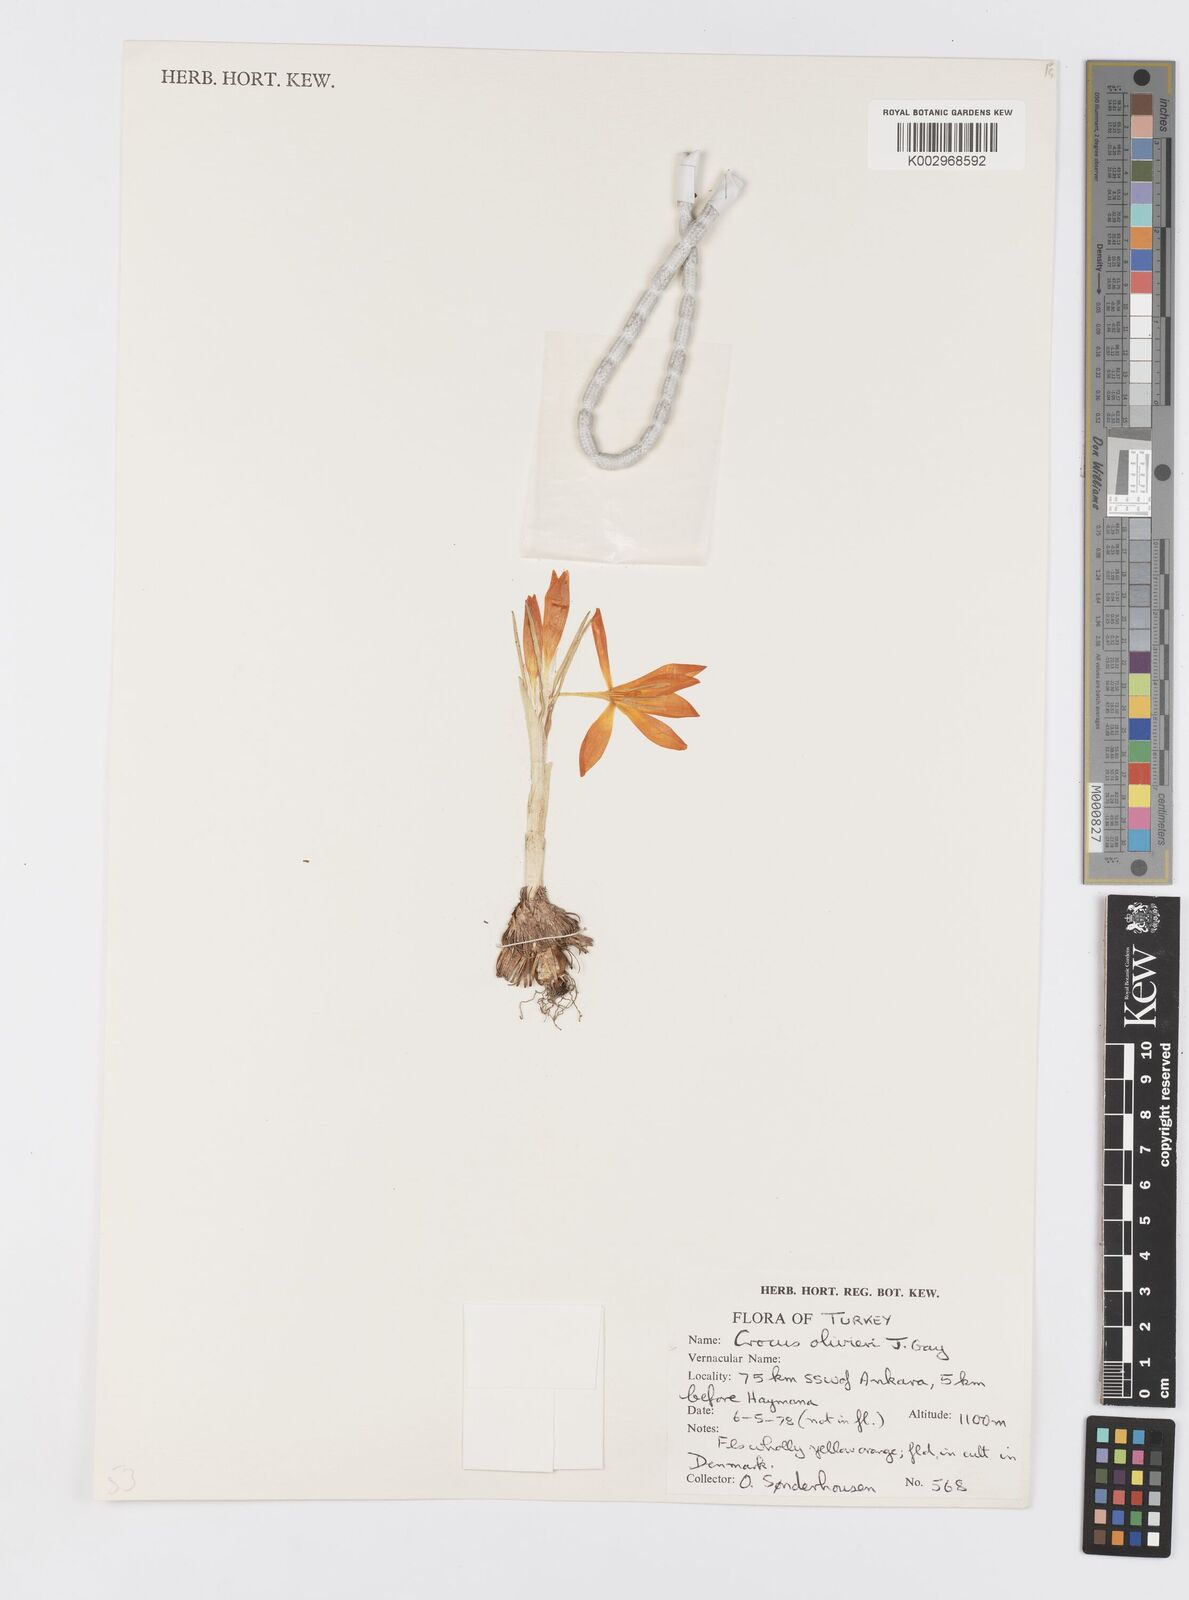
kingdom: Plantae
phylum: Tracheophyta
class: Liliopsida
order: Asparagales
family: Iridaceae
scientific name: Iridaceae
